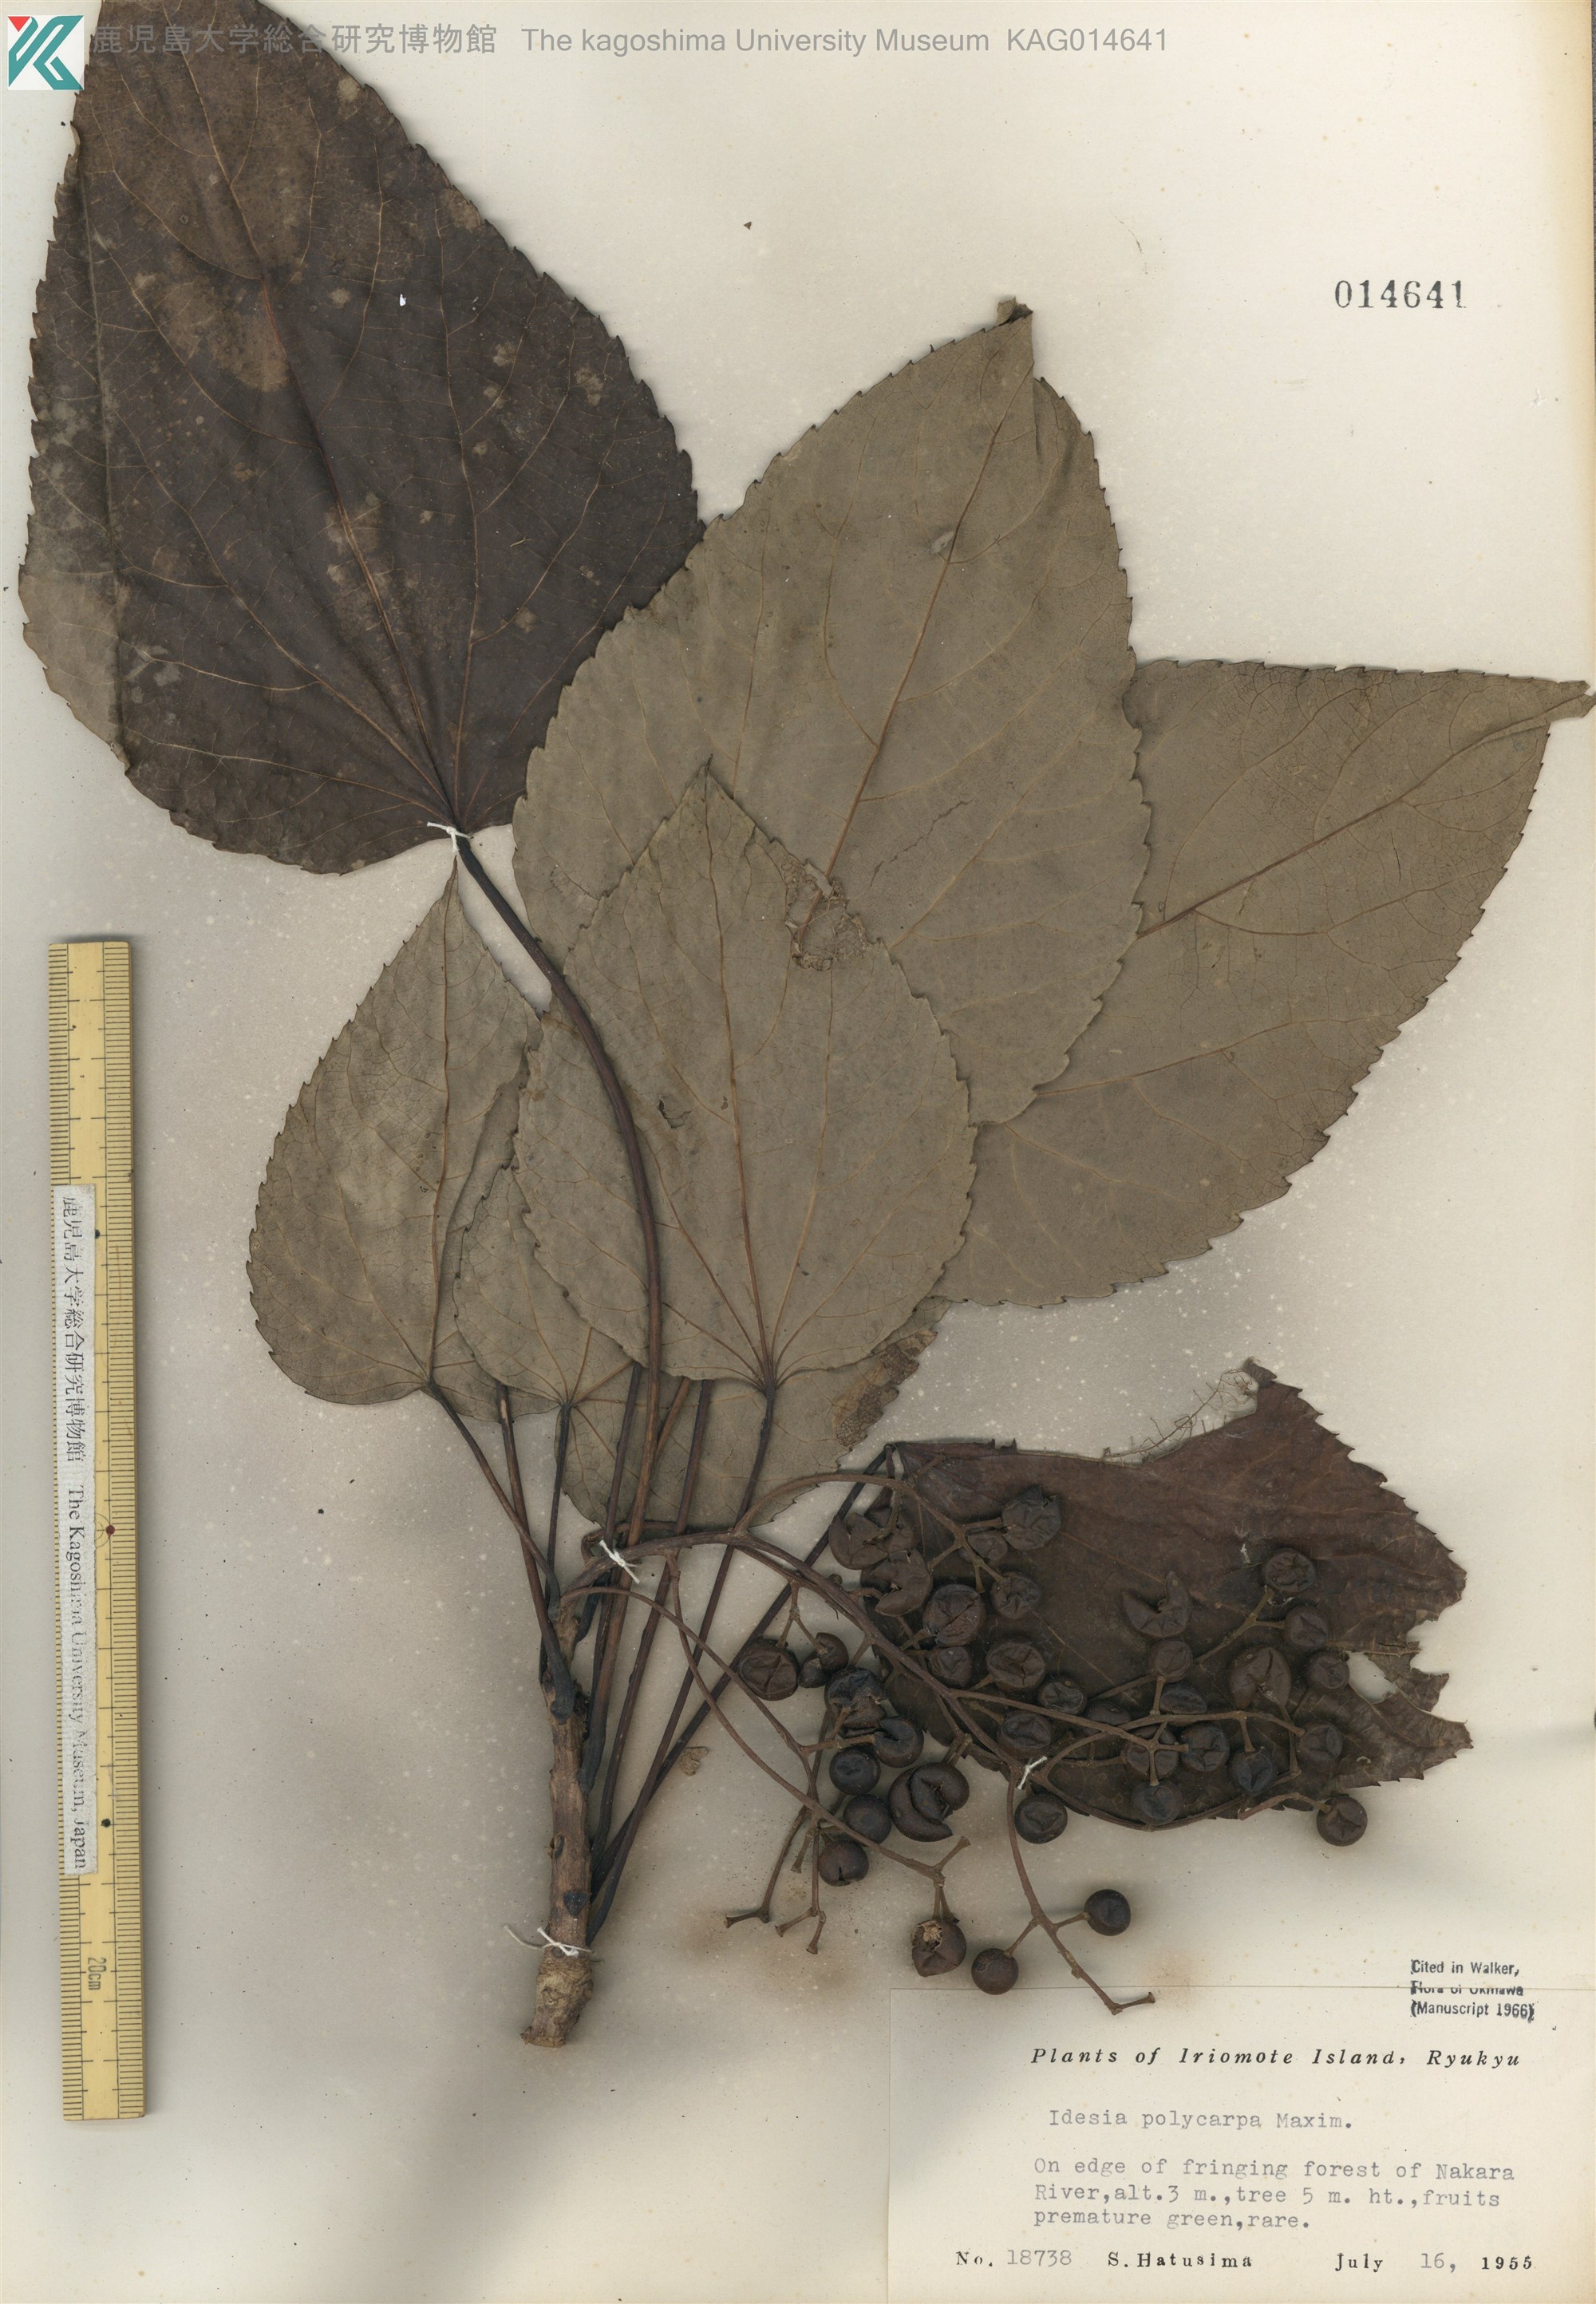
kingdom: Plantae
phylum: Tracheophyta
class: Magnoliopsida
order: Malpighiales
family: Salicaceae
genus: Idesia
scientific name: Idesia polycarpa
